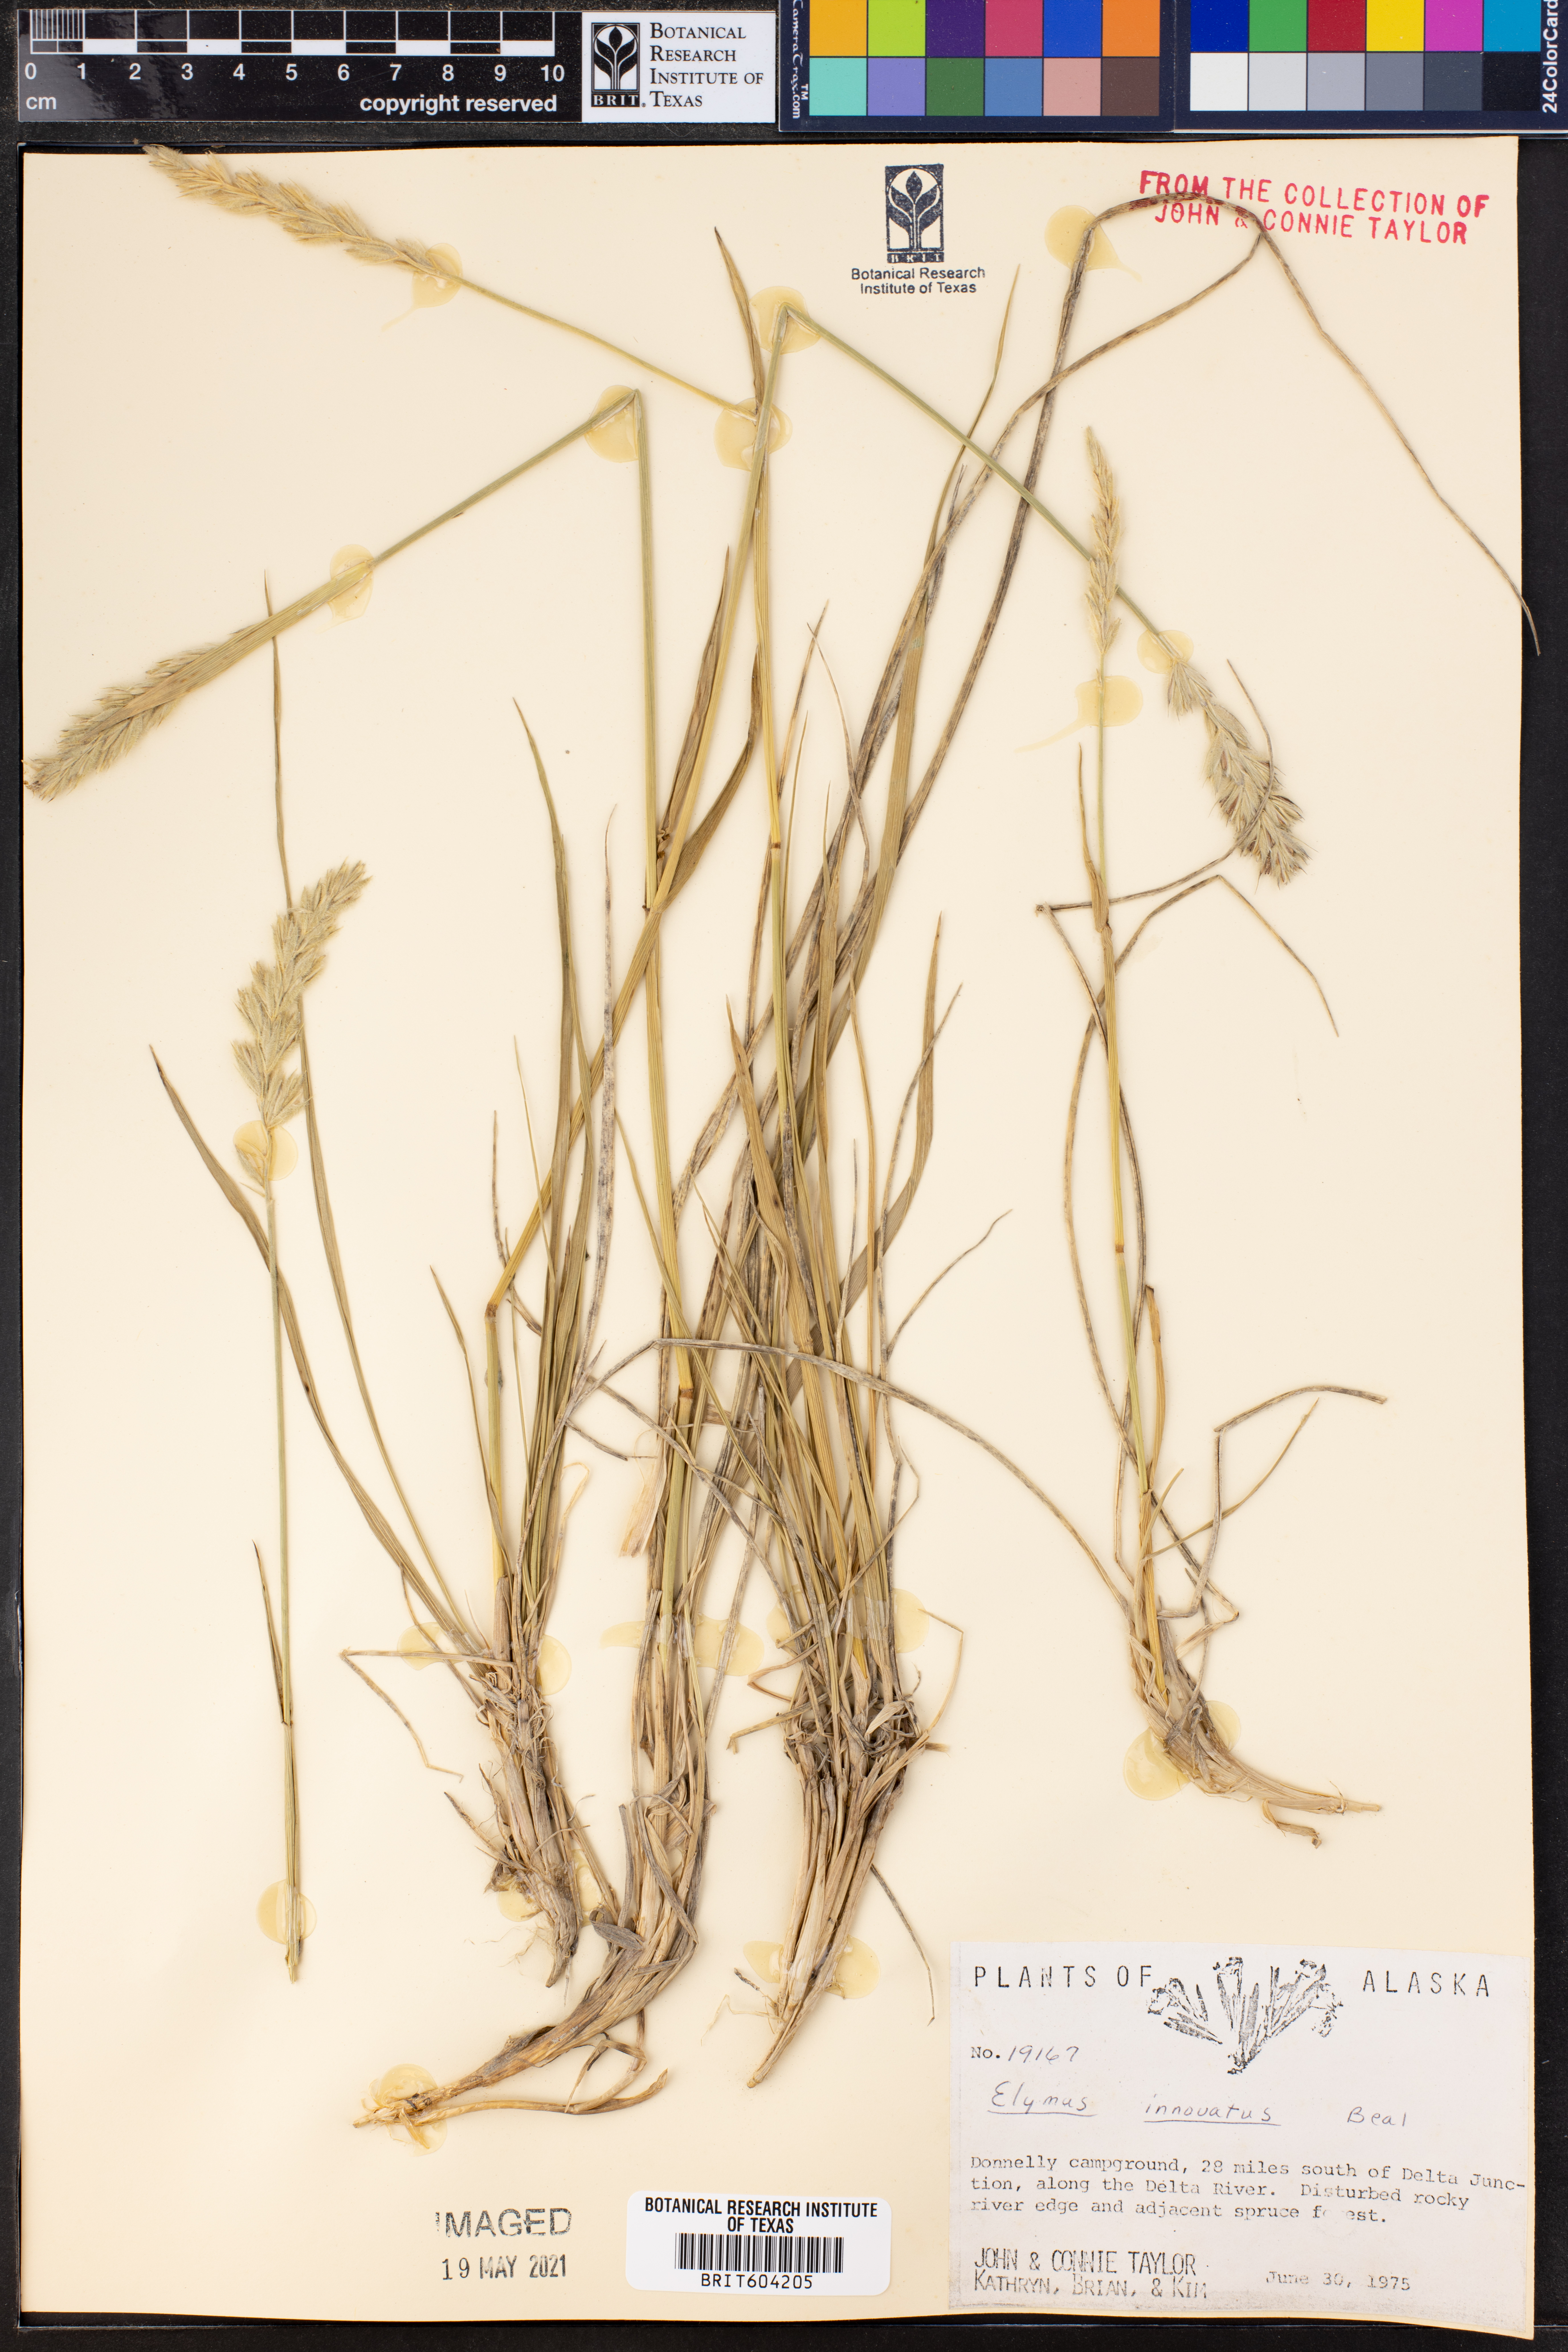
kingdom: Plantae
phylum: Tracheophyta
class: Liliopsida
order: Poales
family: Poaceae
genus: Leymus
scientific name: Leymus innovatus
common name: Boreal wild rye
